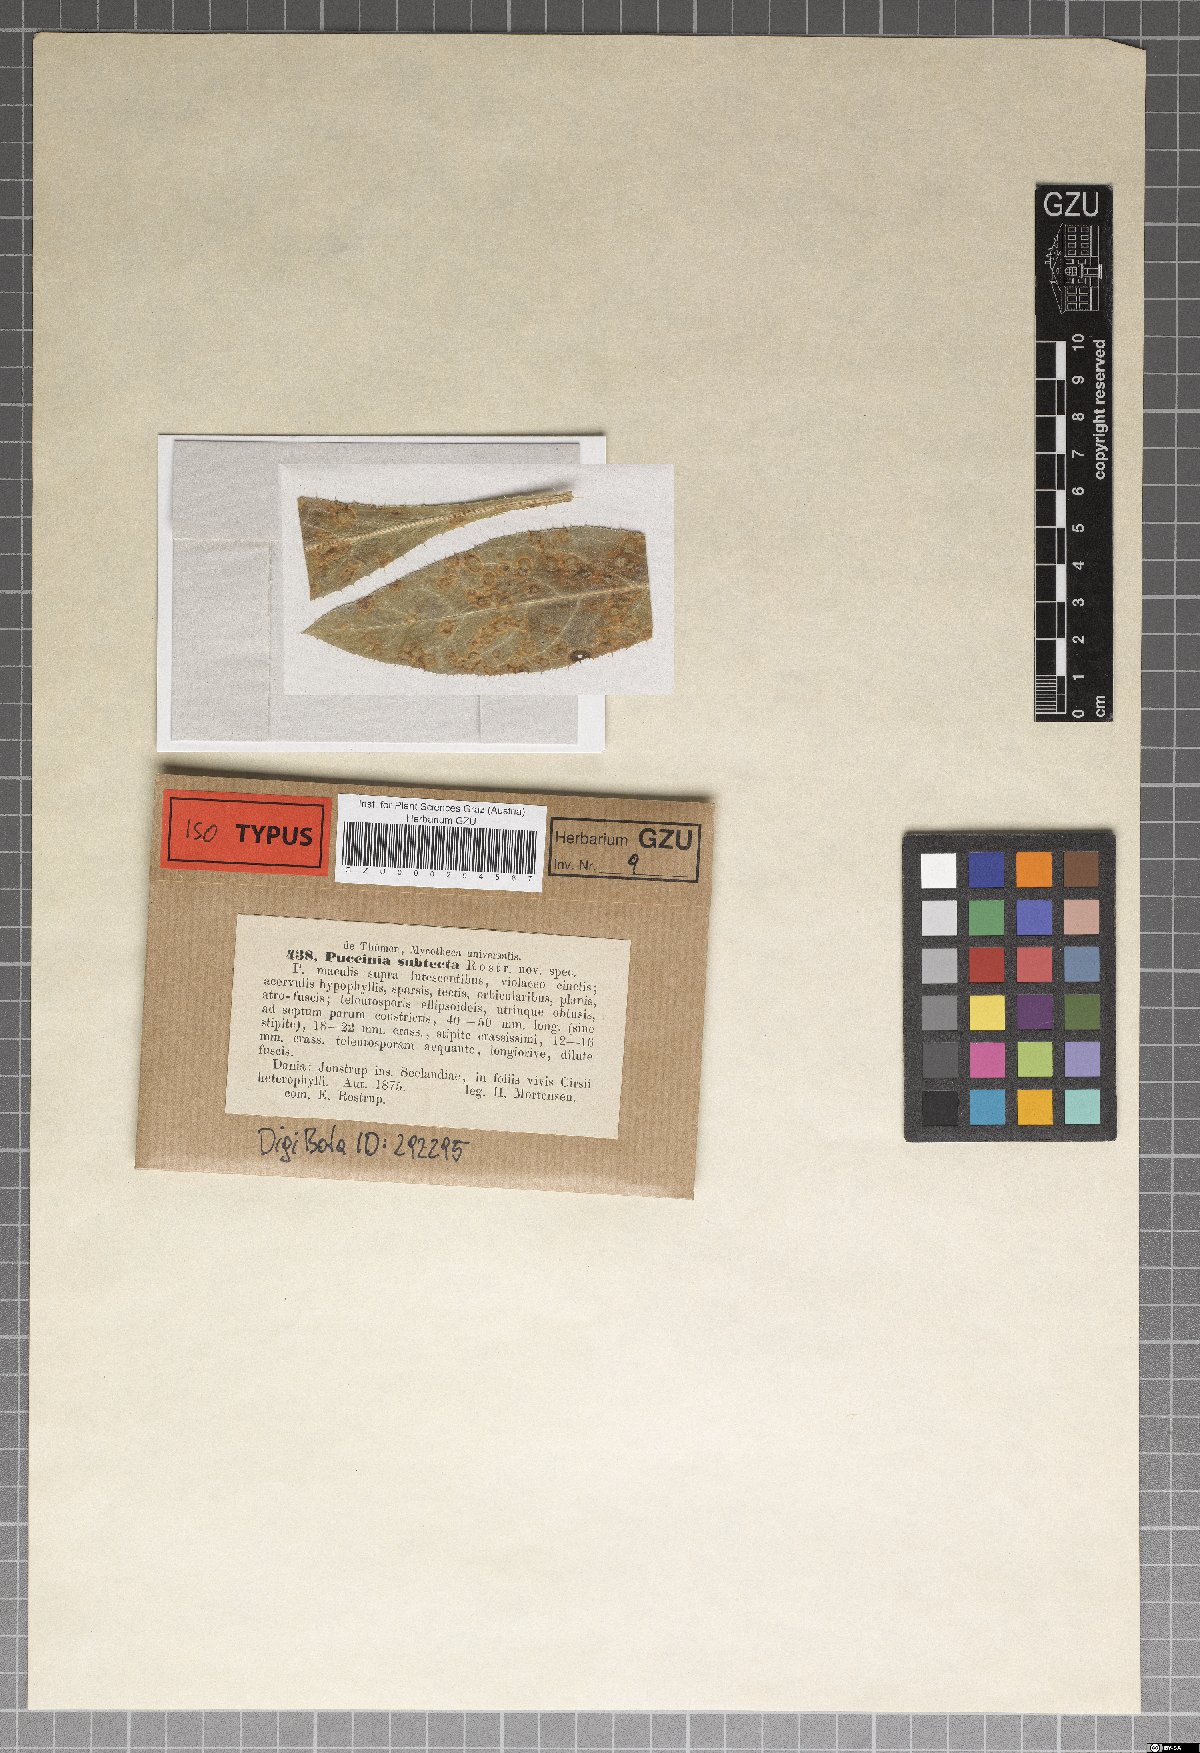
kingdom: Fungi
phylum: Basidiomycota
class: Pucciniomycetes
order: Pucciniales
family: Pucciniaceae
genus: Puccinia
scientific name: Puccinia sublesta
